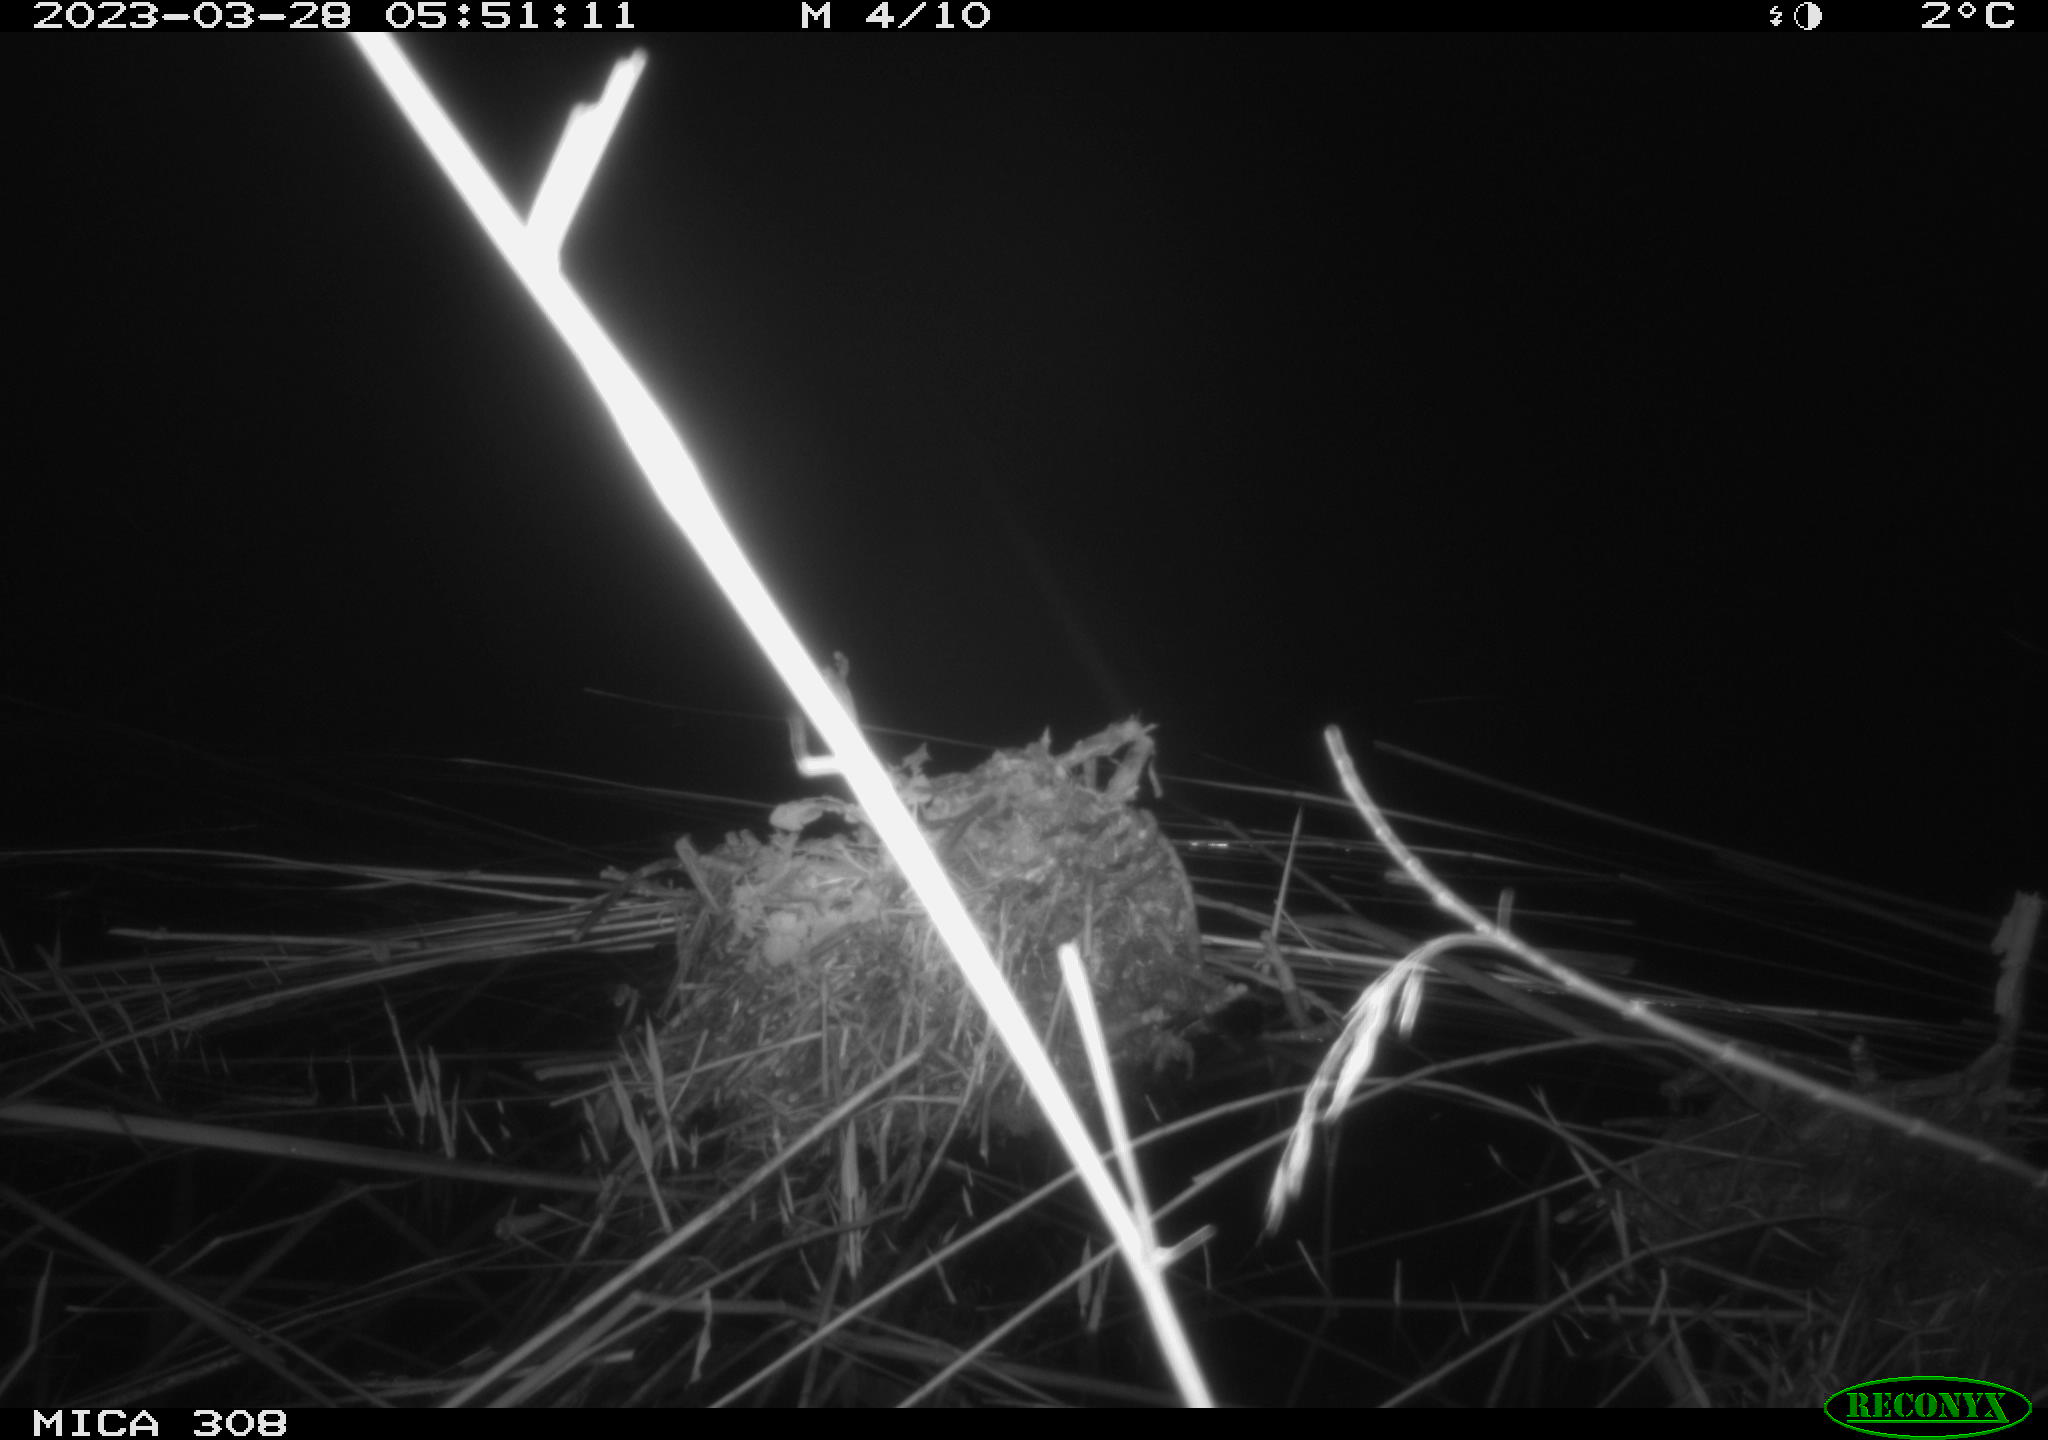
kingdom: Animalia
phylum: Chordata
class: Aves
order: Anseriformes
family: Anatidae
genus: Anas
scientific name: Anas
